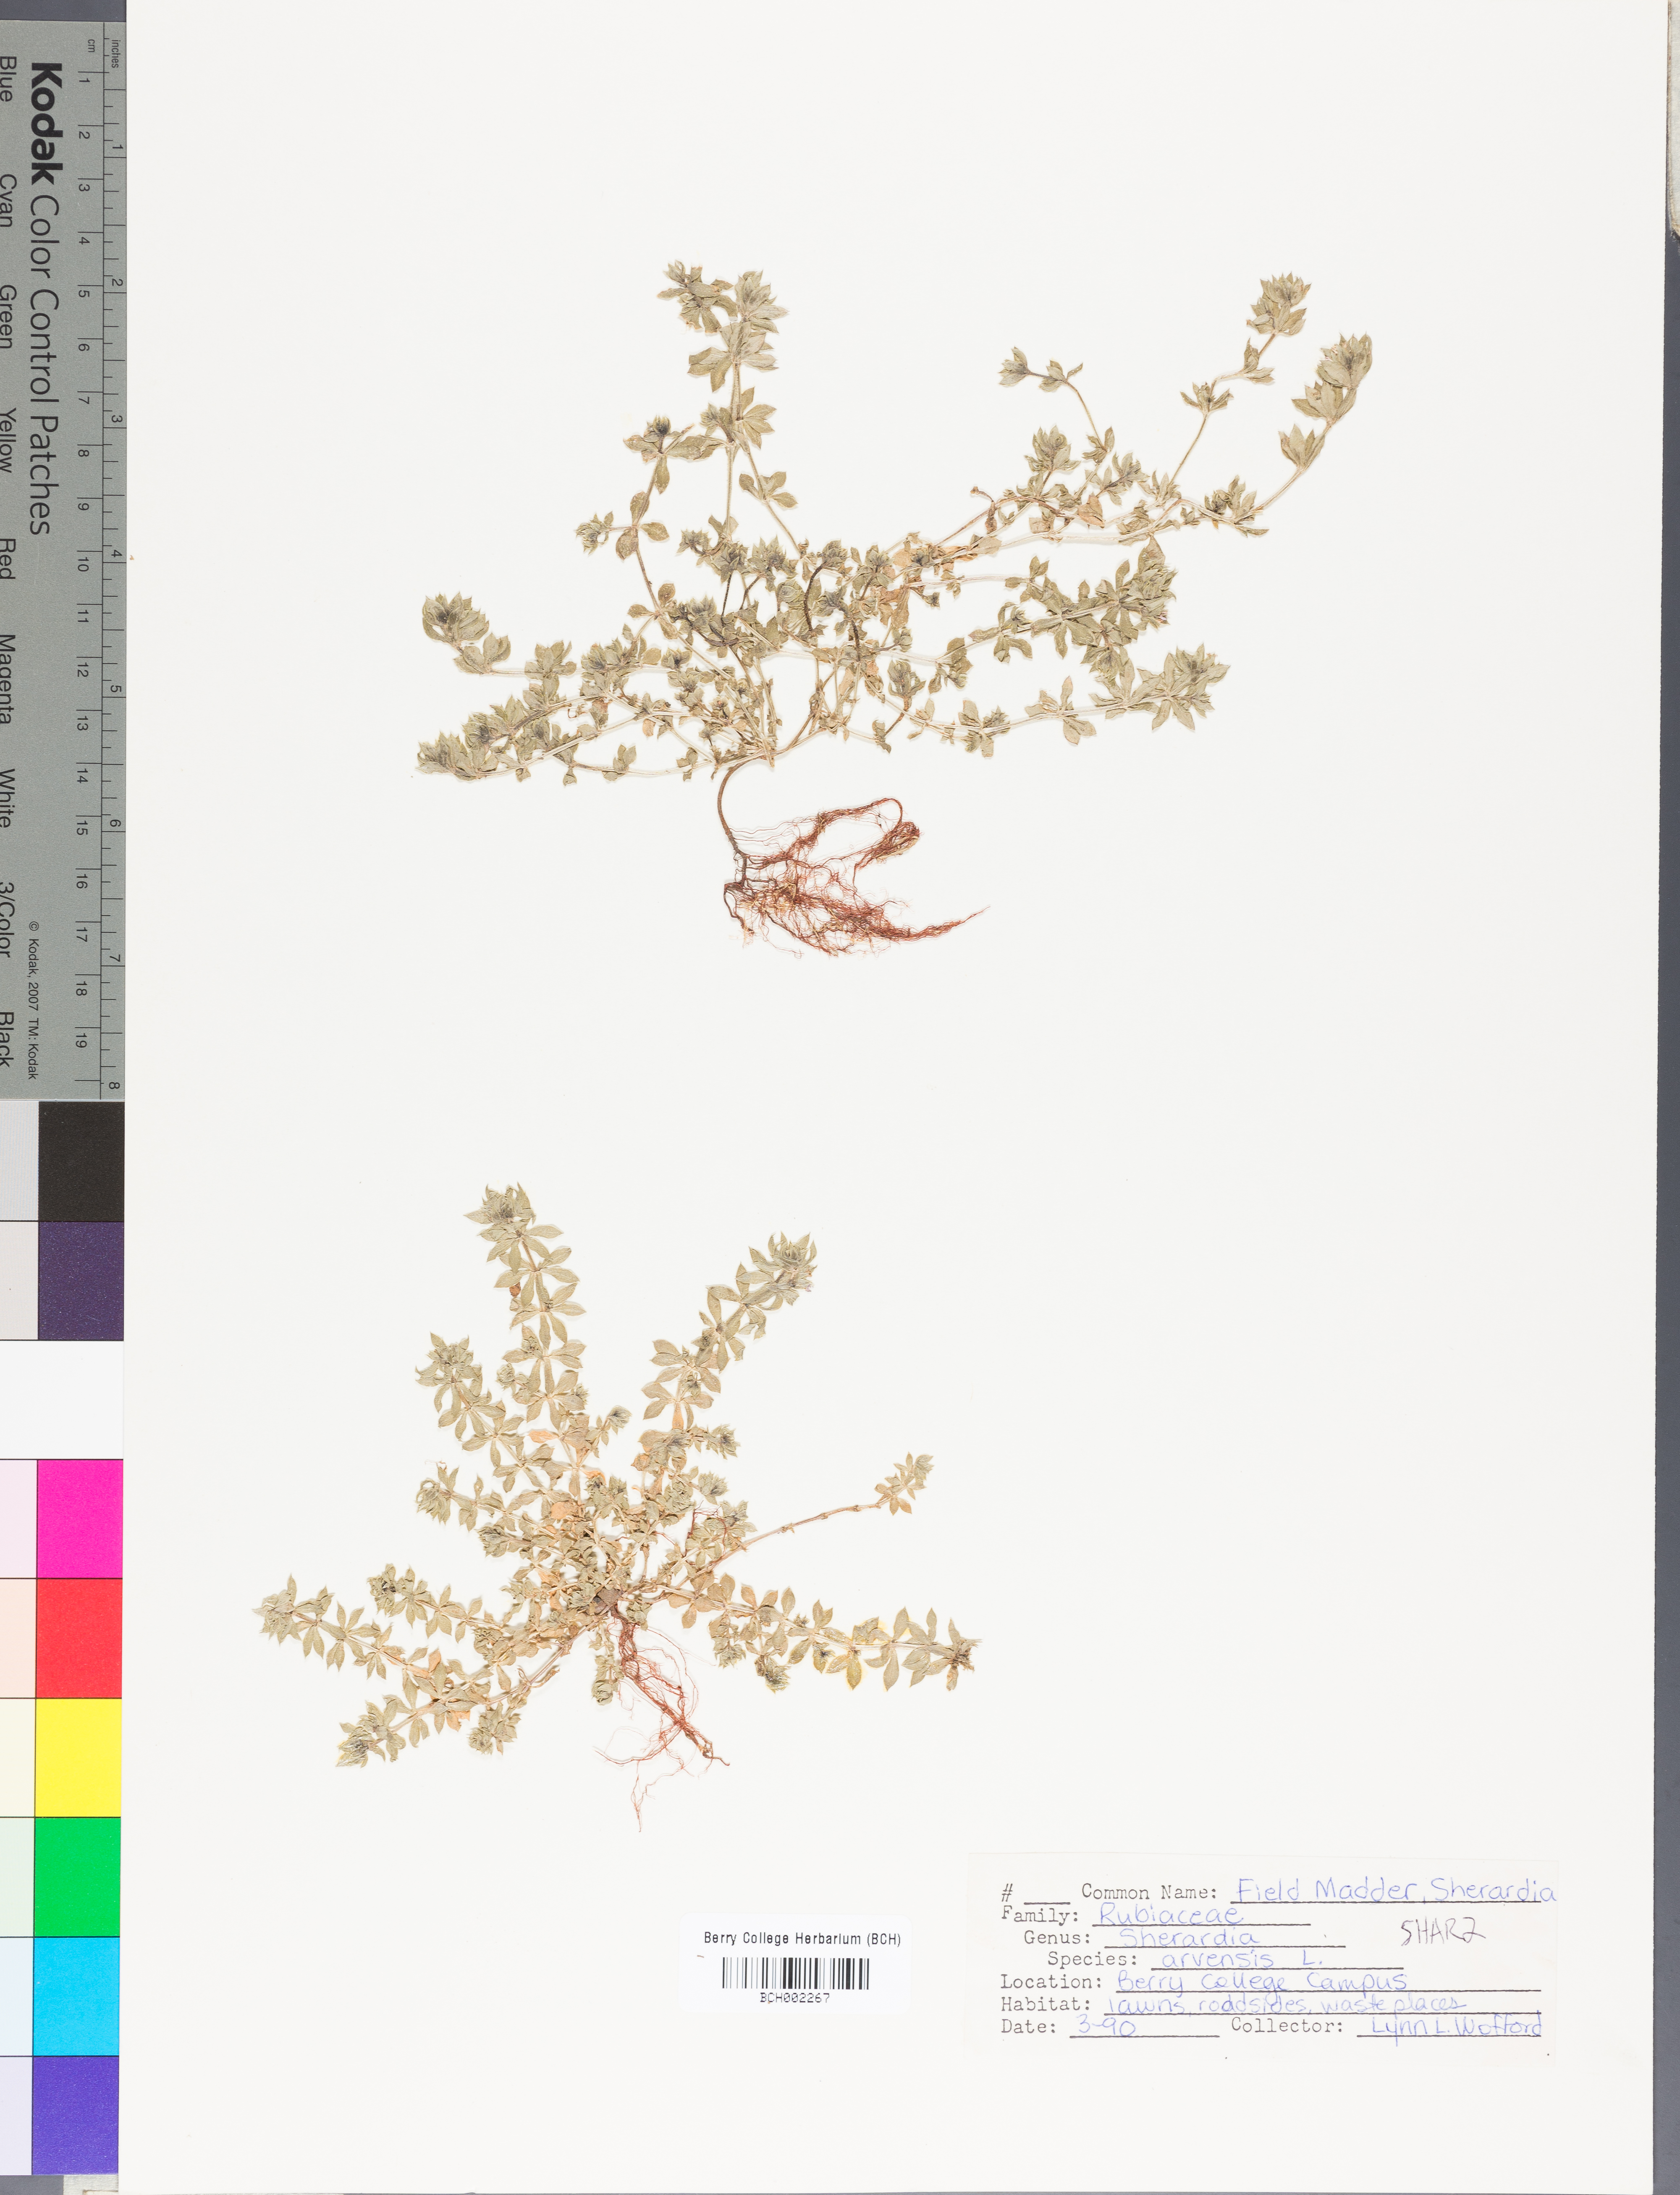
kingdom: Plantae
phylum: Tracheophyta
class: Magnoliopsida
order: Gentianales
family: Rubiaceae
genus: Sherardia
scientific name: Sherardia arvensis
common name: Field madder
